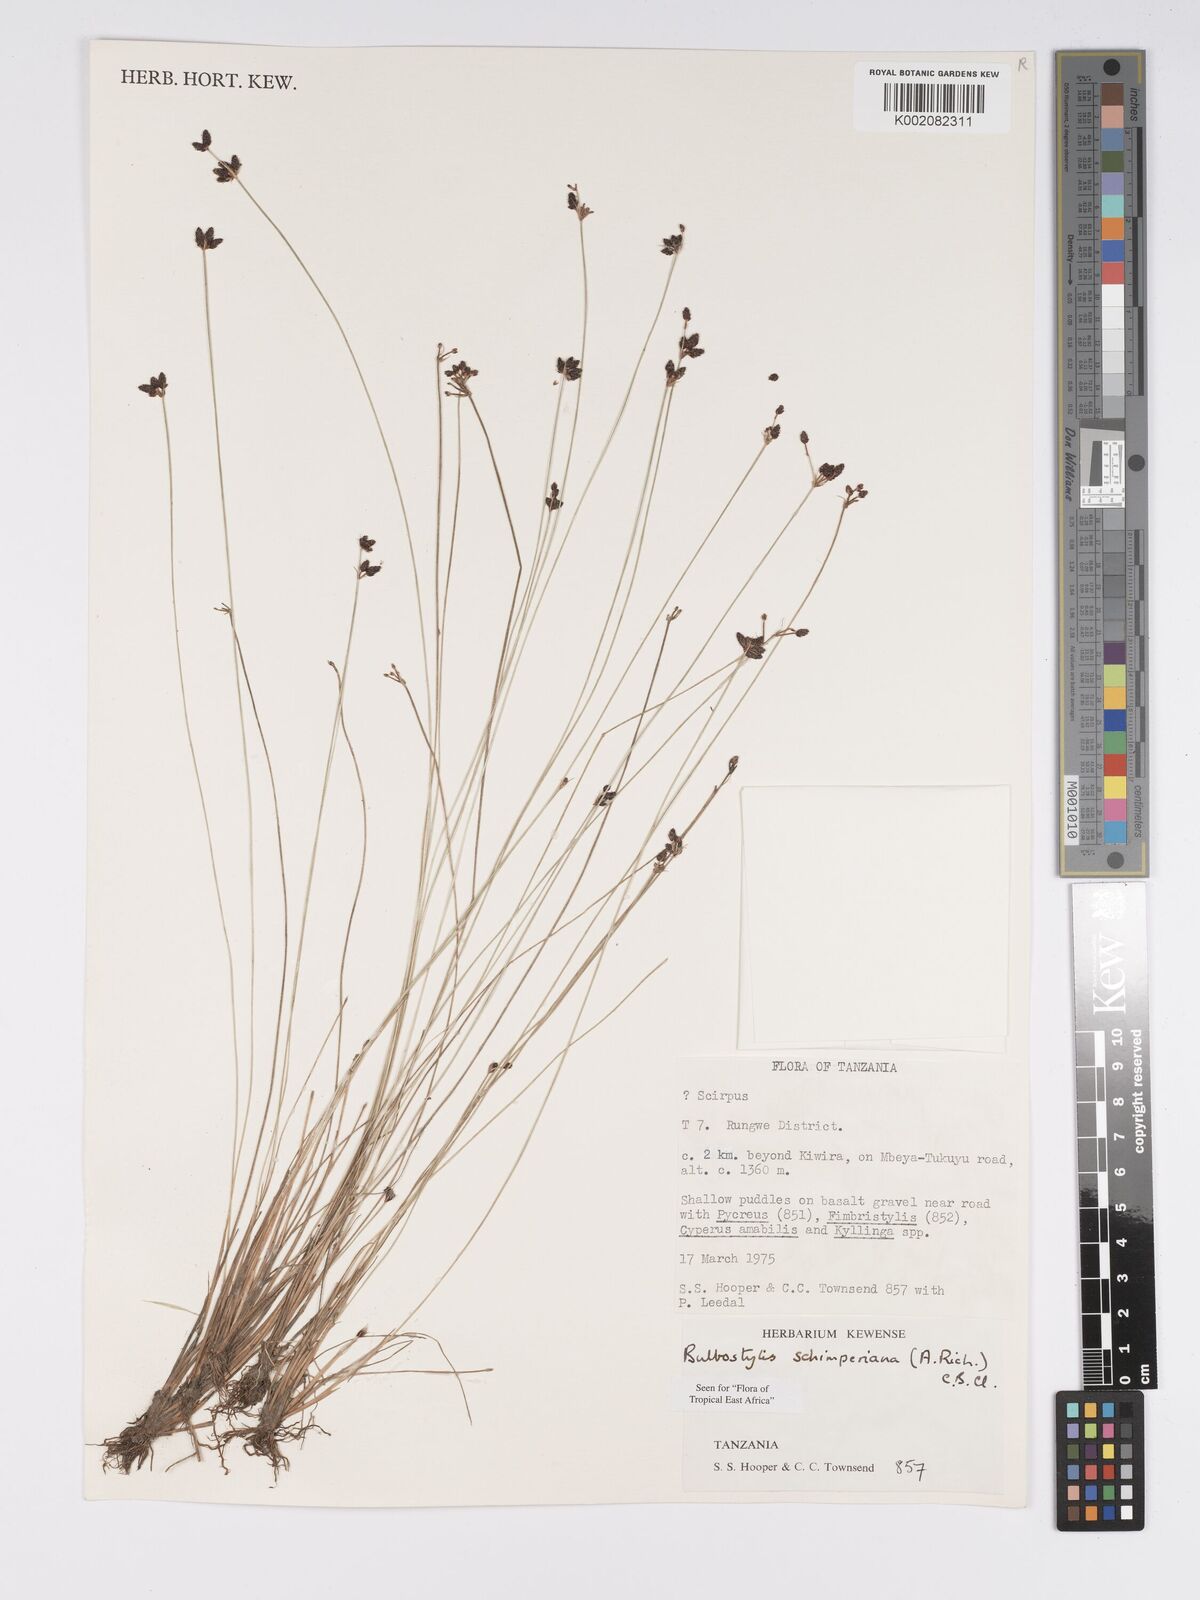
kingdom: Plantae
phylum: Tracheophyta
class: Liliopsida
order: Poales
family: Cyperaceae
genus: Bulbostylis
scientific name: Bulbostylis schimperiana
